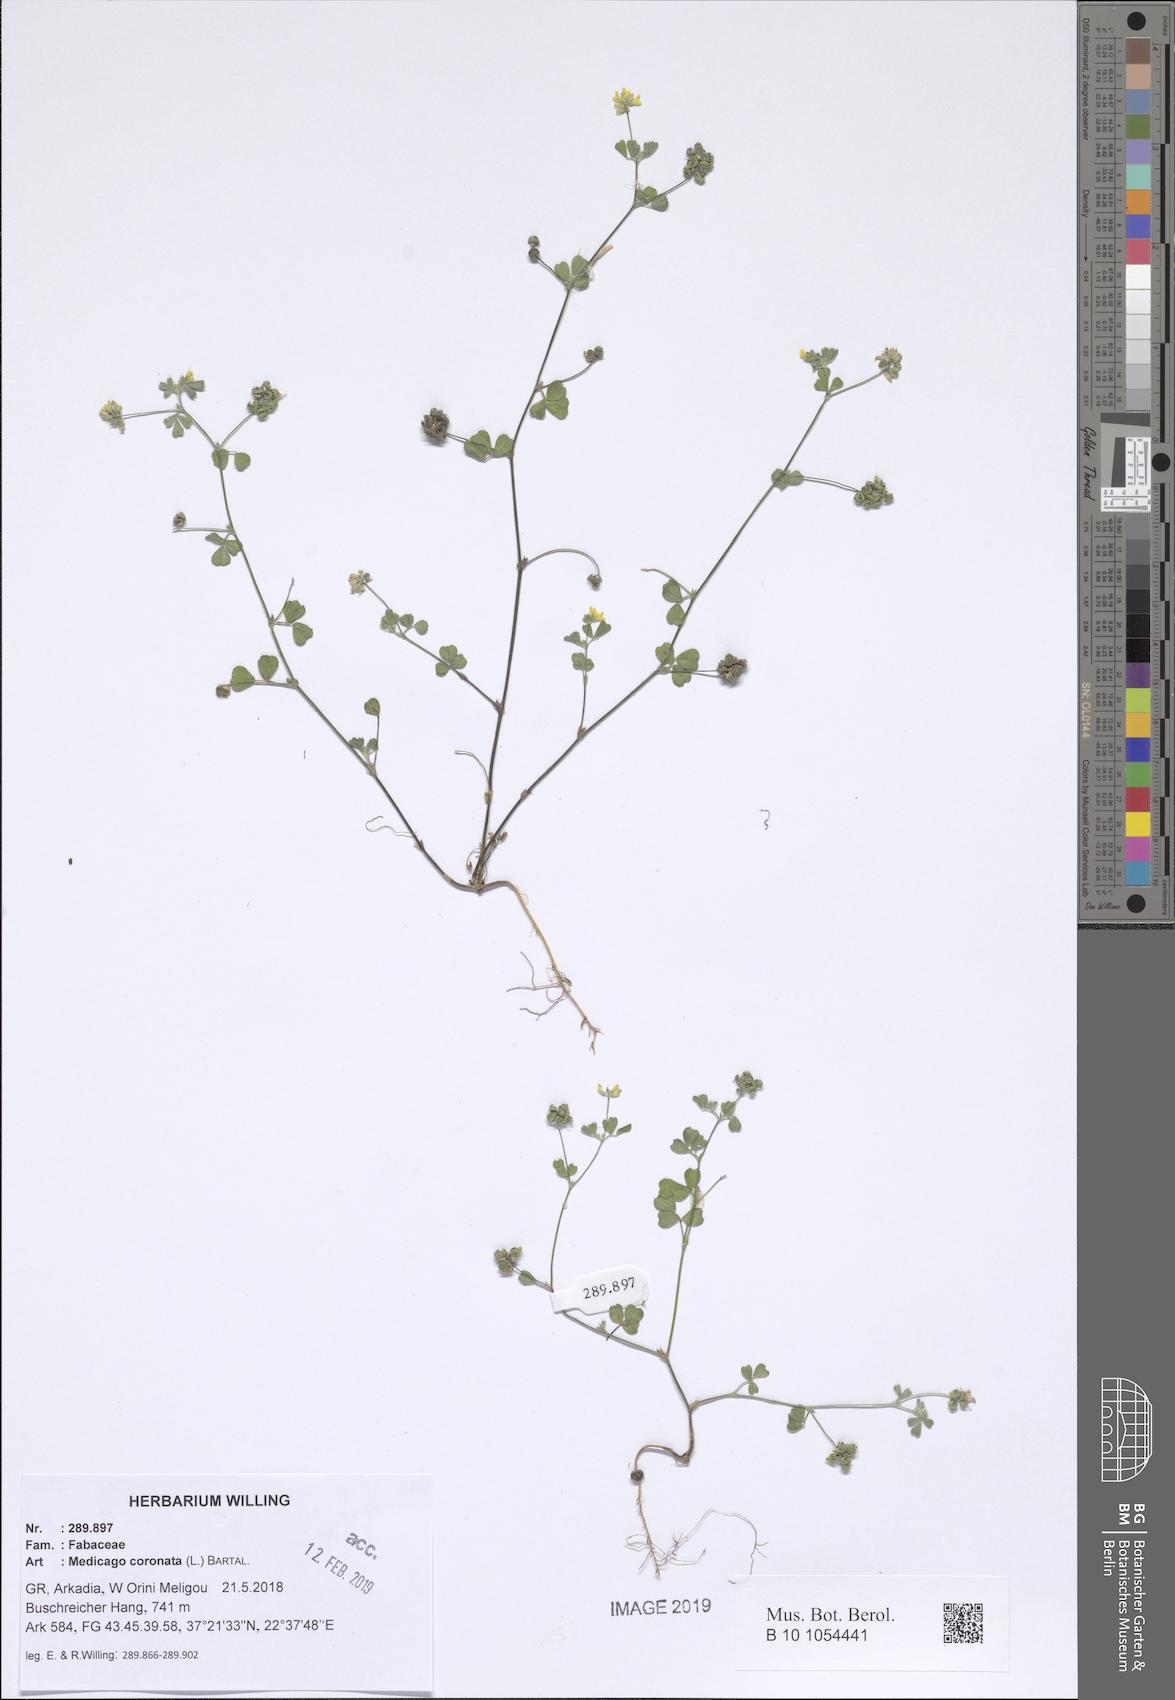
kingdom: Plantae
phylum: Tracheophyta
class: Magnoliopsida
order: Fabales
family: Fabaceae
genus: Medicago
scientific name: Medicago coronata
